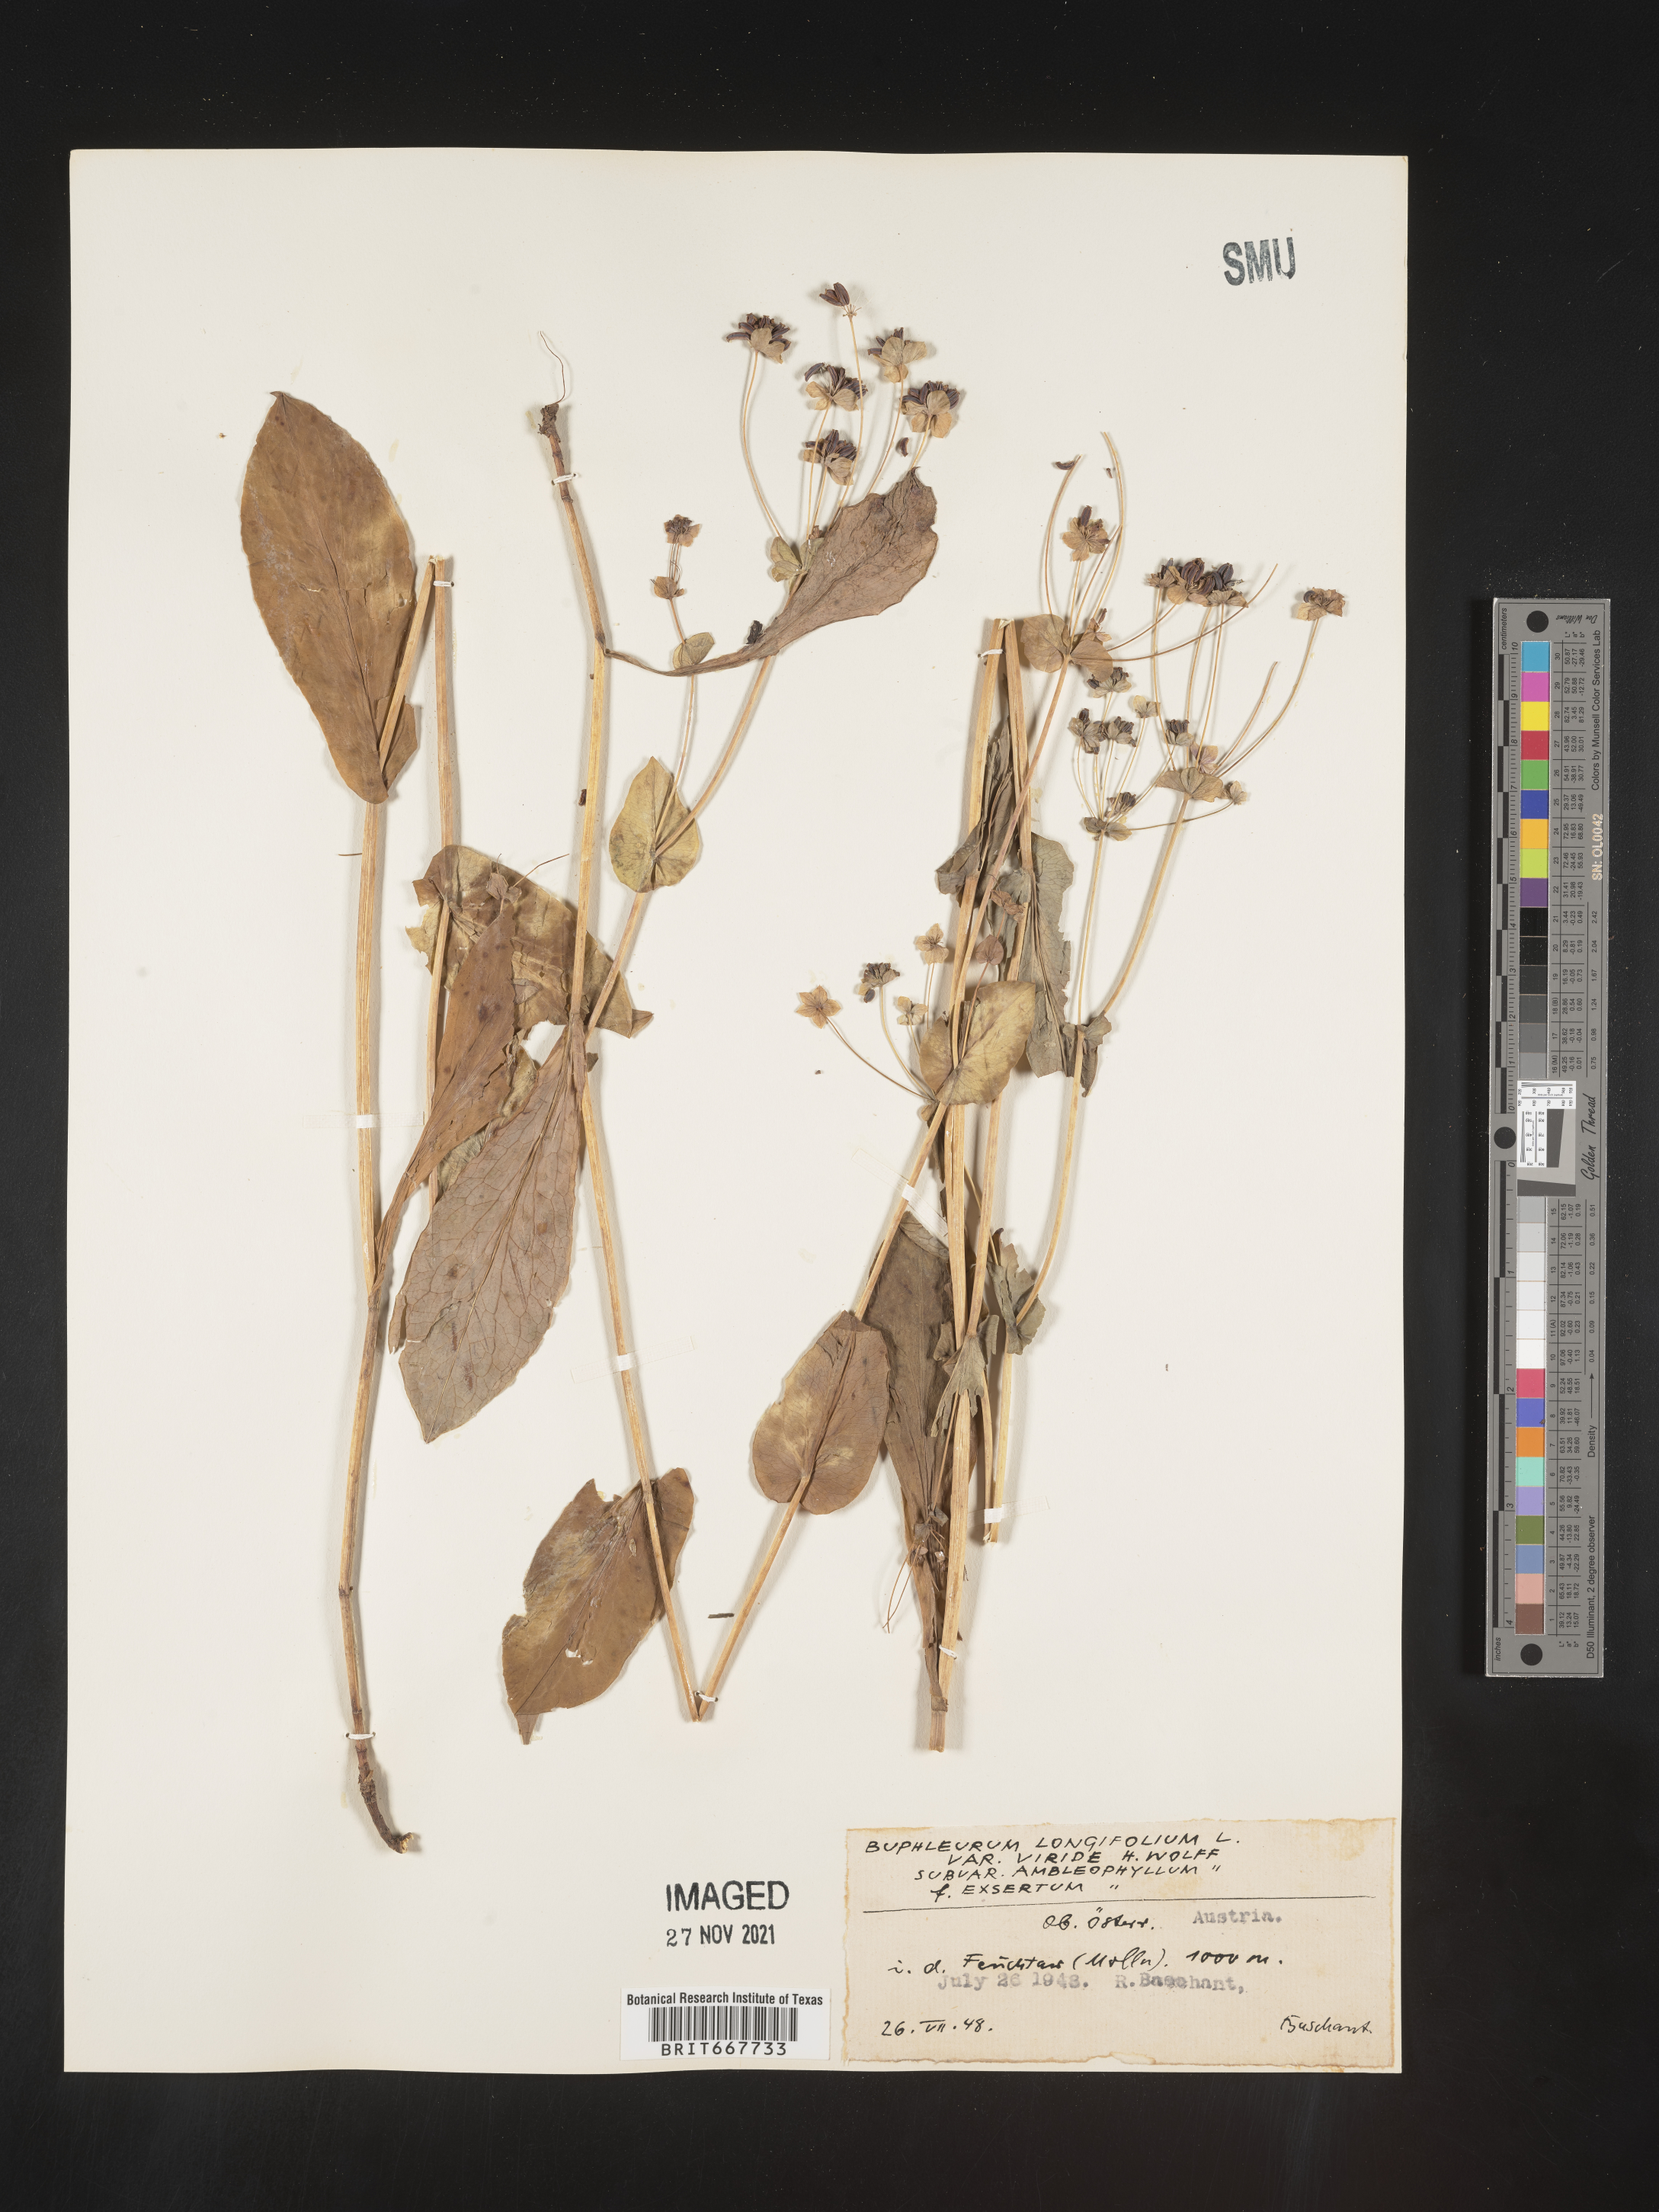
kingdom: Plantae
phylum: Tracheophyta
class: Magnoliopsida
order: Apiales
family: Apiaceae
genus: Bupleurum
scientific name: Bupleurum
